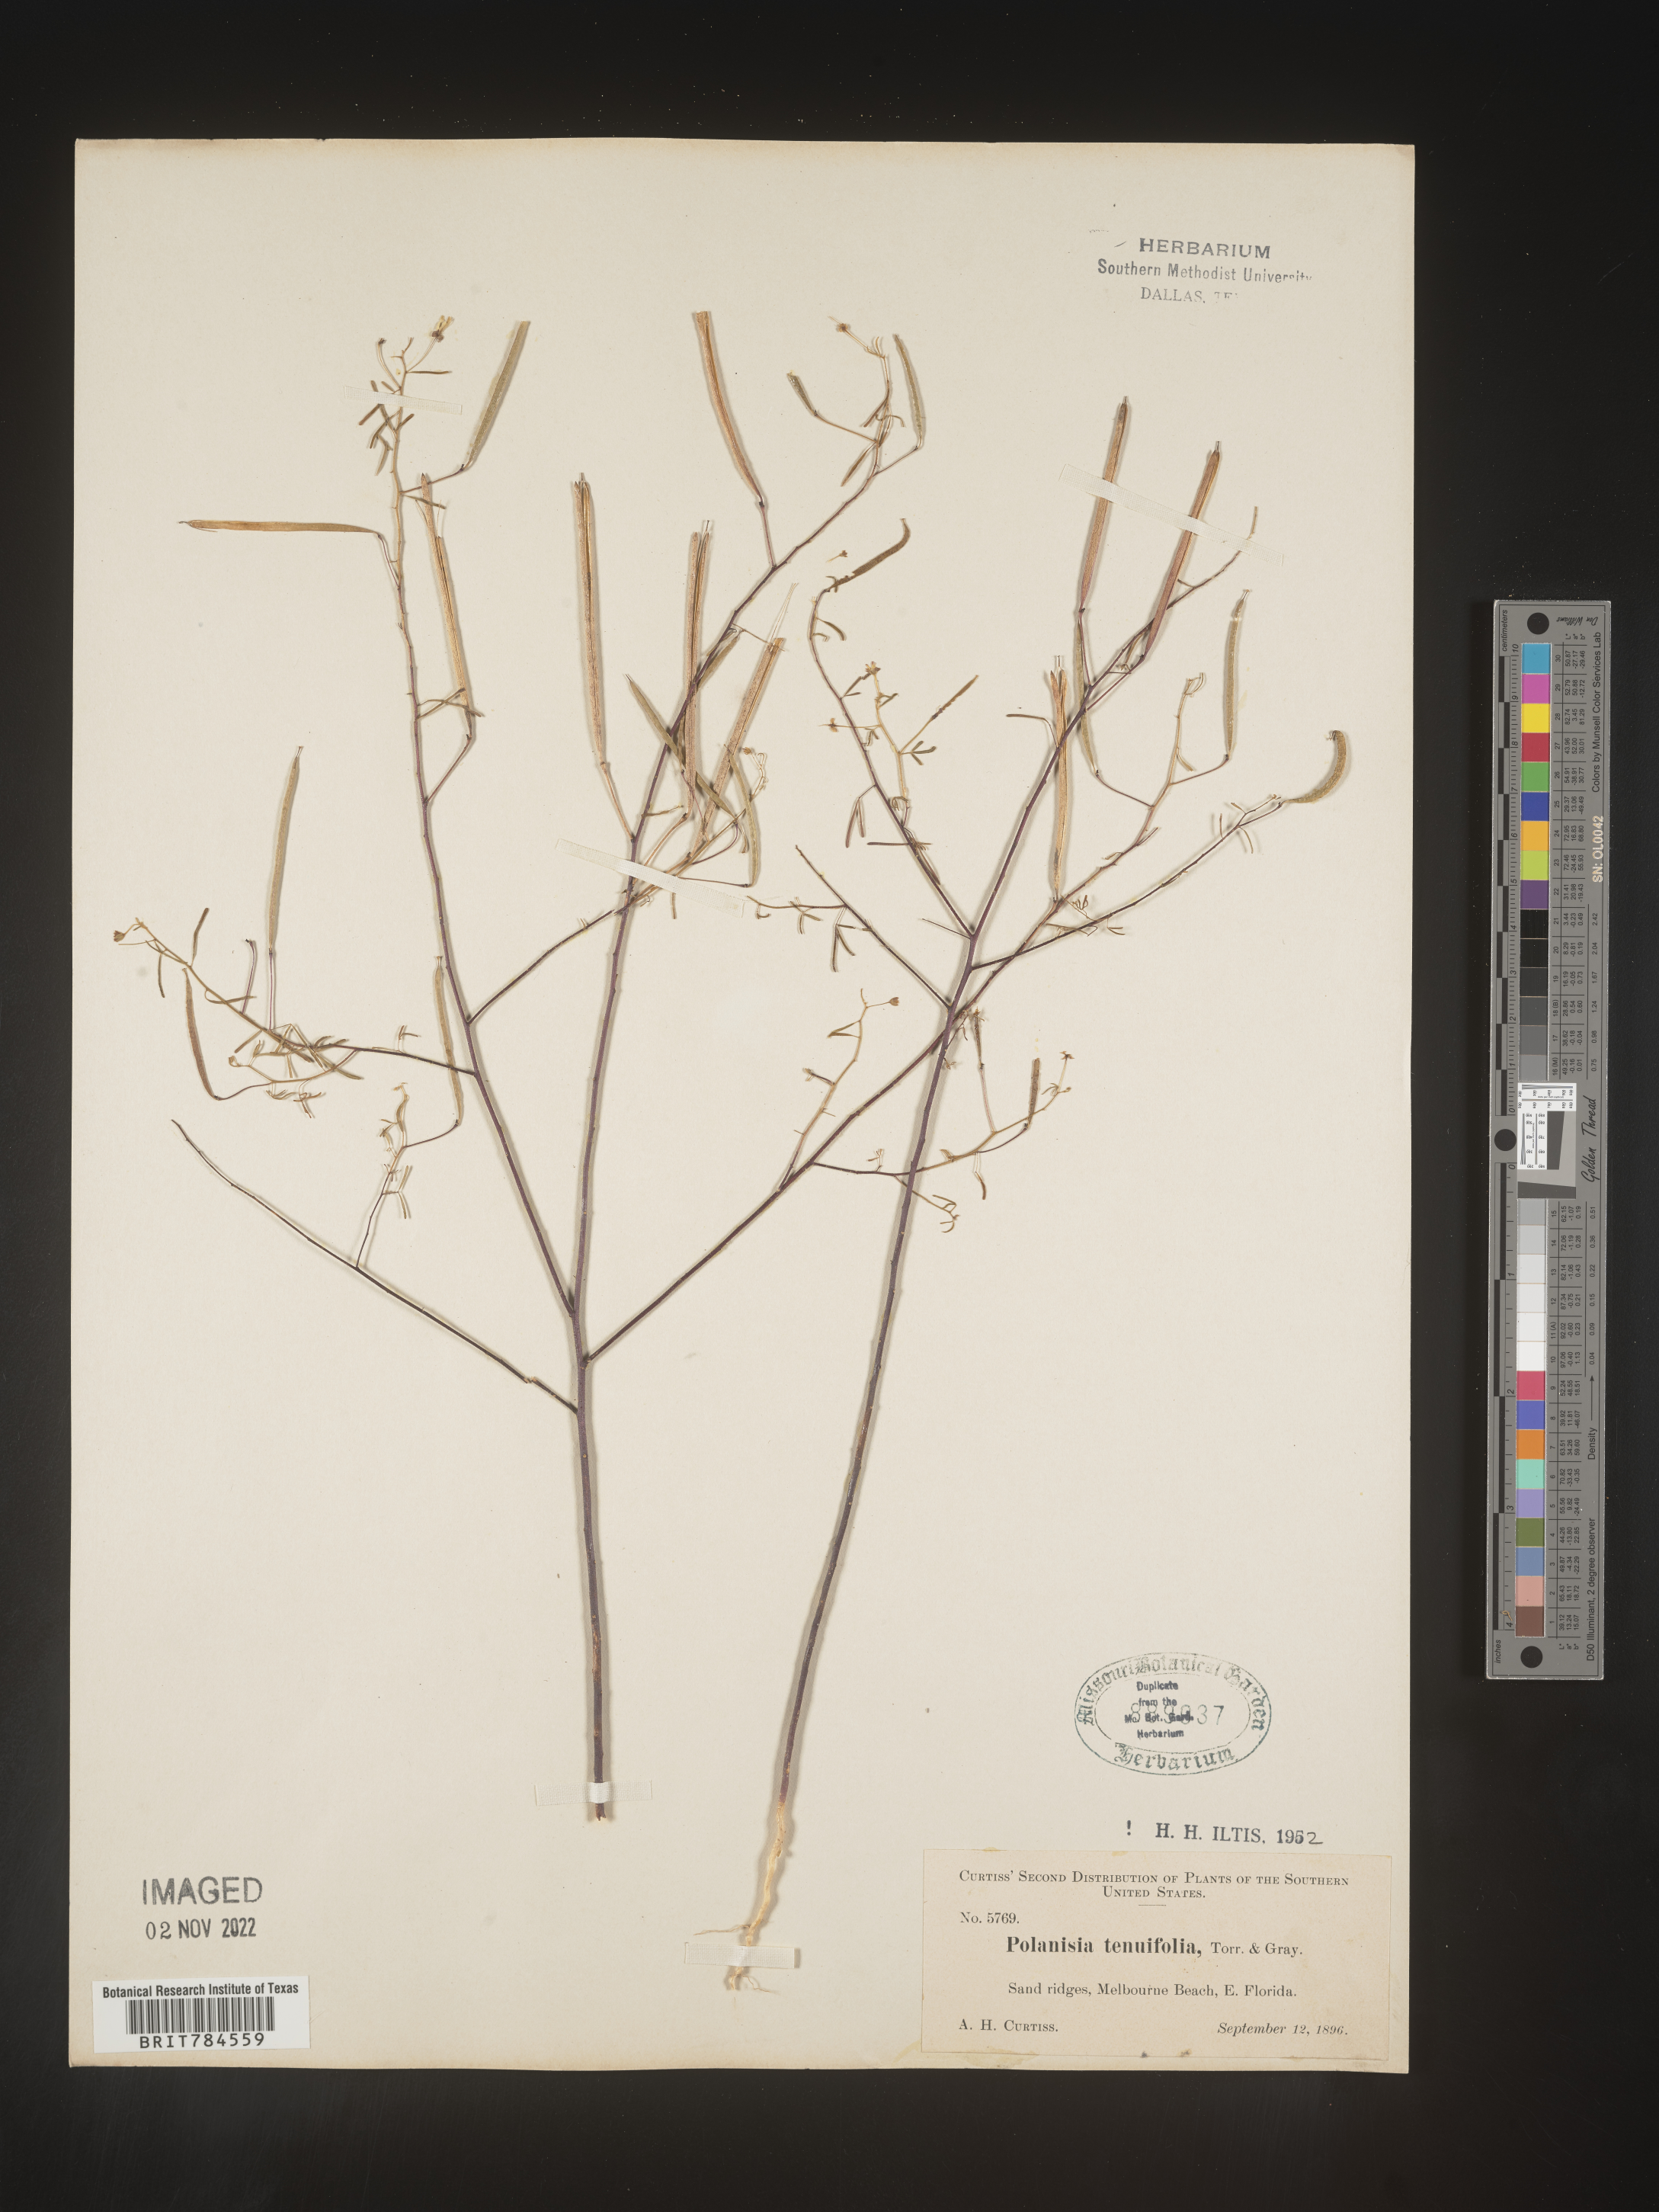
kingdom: Plantae
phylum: Tracheophyta
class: Magnoliopsida
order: Brassicales
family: Cleomaceae
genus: Polanisia
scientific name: Polanisia
